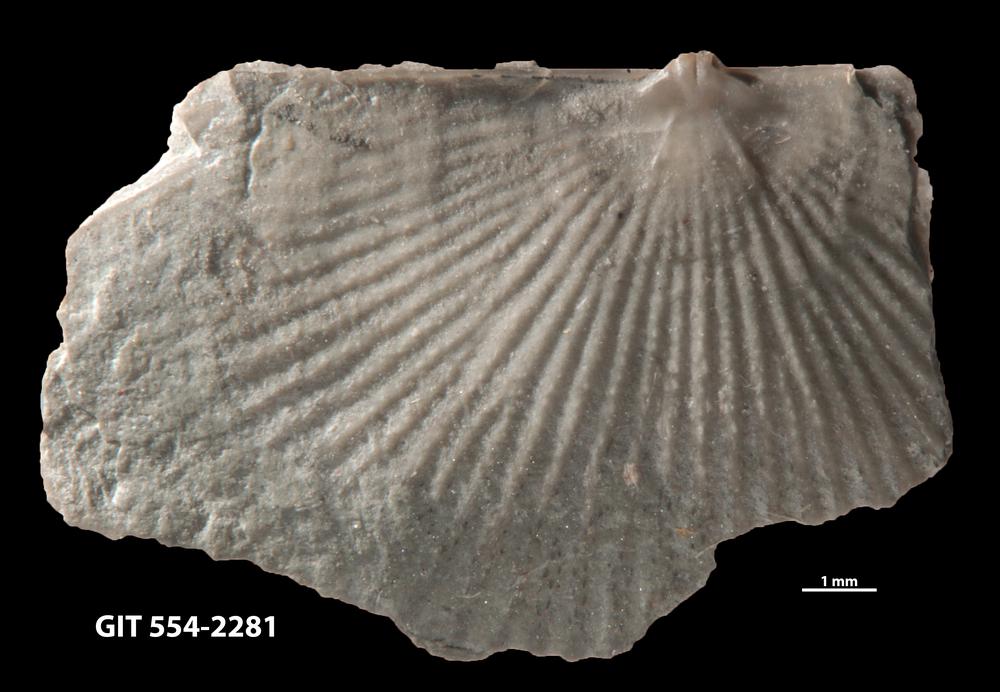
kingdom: Animalia
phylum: Brachiopoda
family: Strophochonetidae
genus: Protochonetes
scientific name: Protochonetes piltenensis
